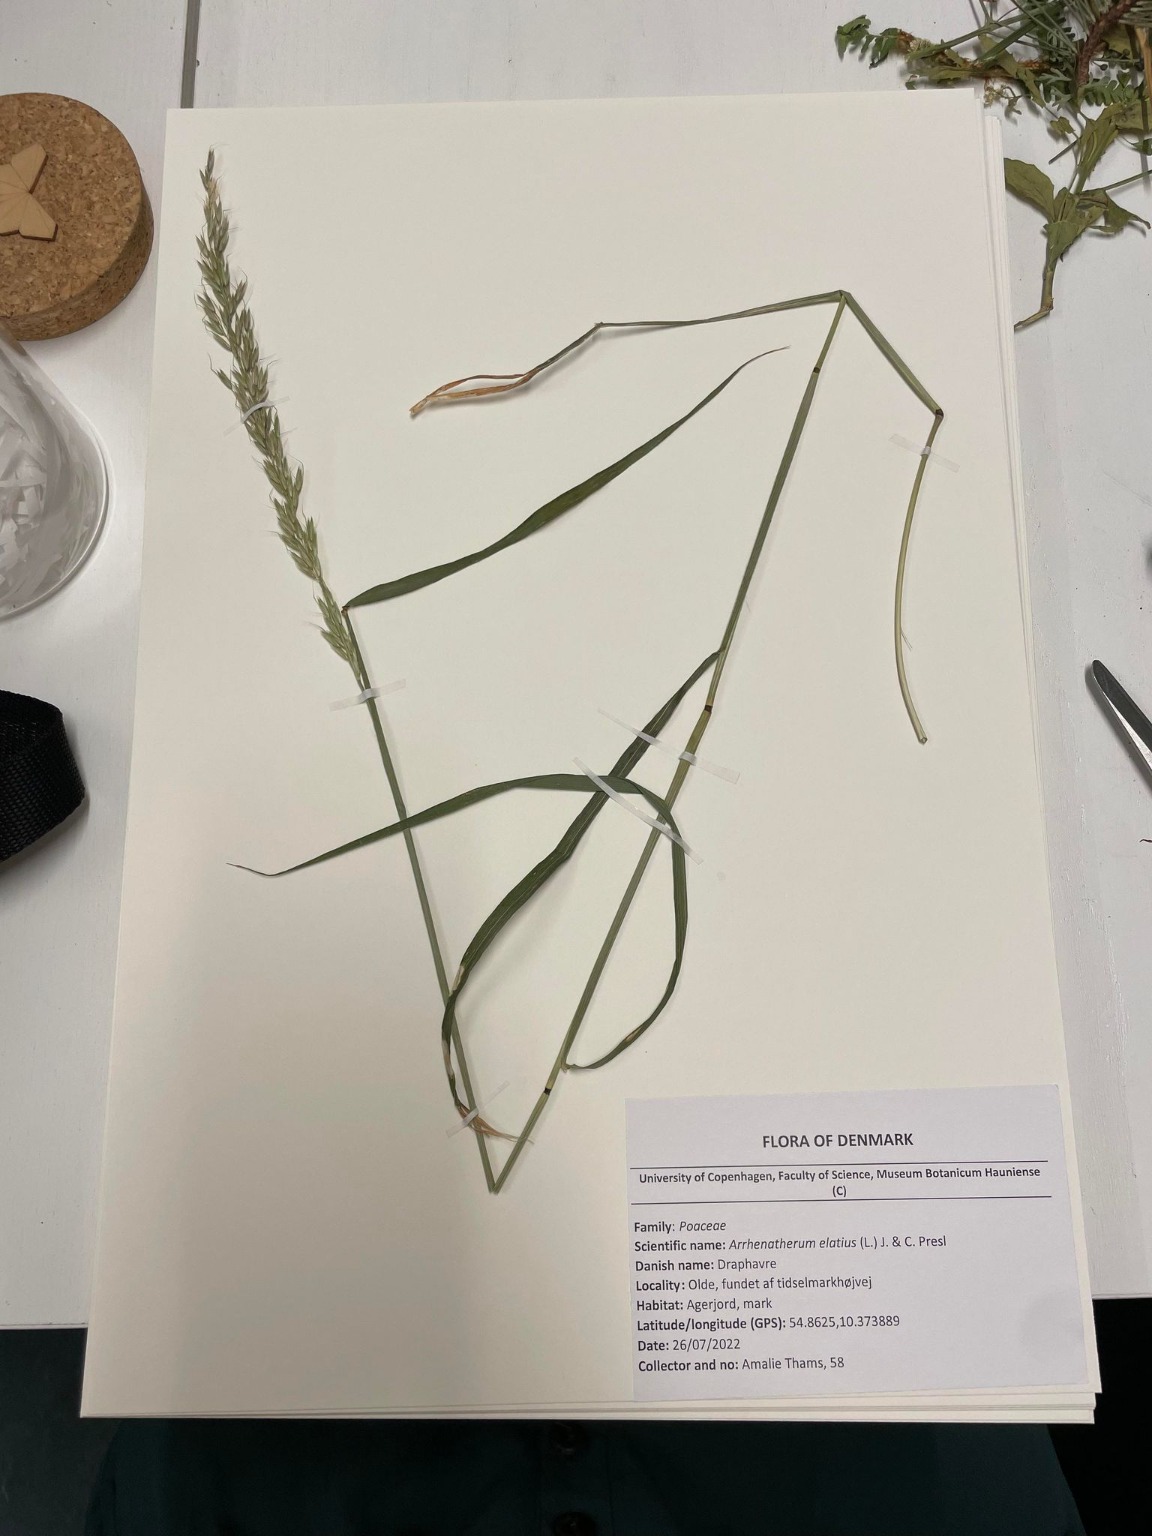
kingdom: Plantae
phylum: Tracheophyta
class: Liliopsida
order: Poales
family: Poaceae
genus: Arrhenatherum
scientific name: Arrhenatherum elatius
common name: Draphavre
